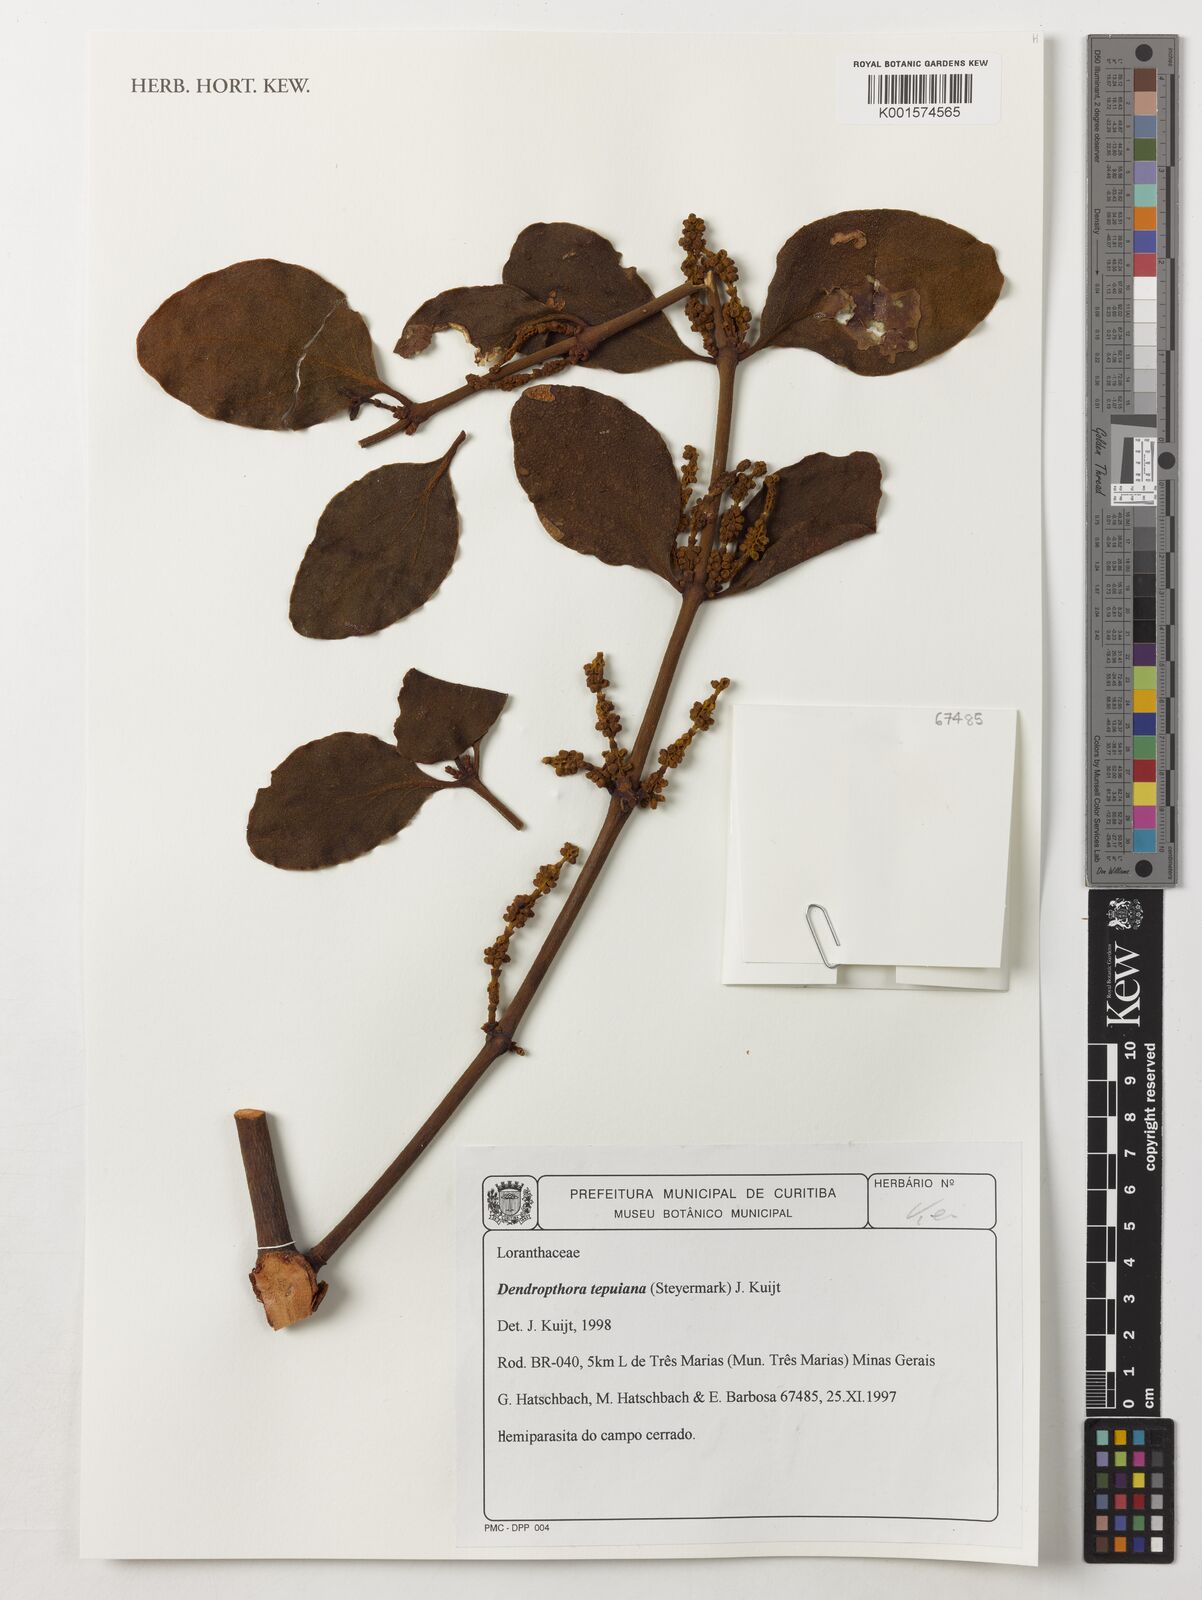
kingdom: Plantae
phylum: Tracheophyta
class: Magnoliopsida
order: Santalales
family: Viscaceae
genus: Dendrophthora
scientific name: Dendrophthora warmingii
